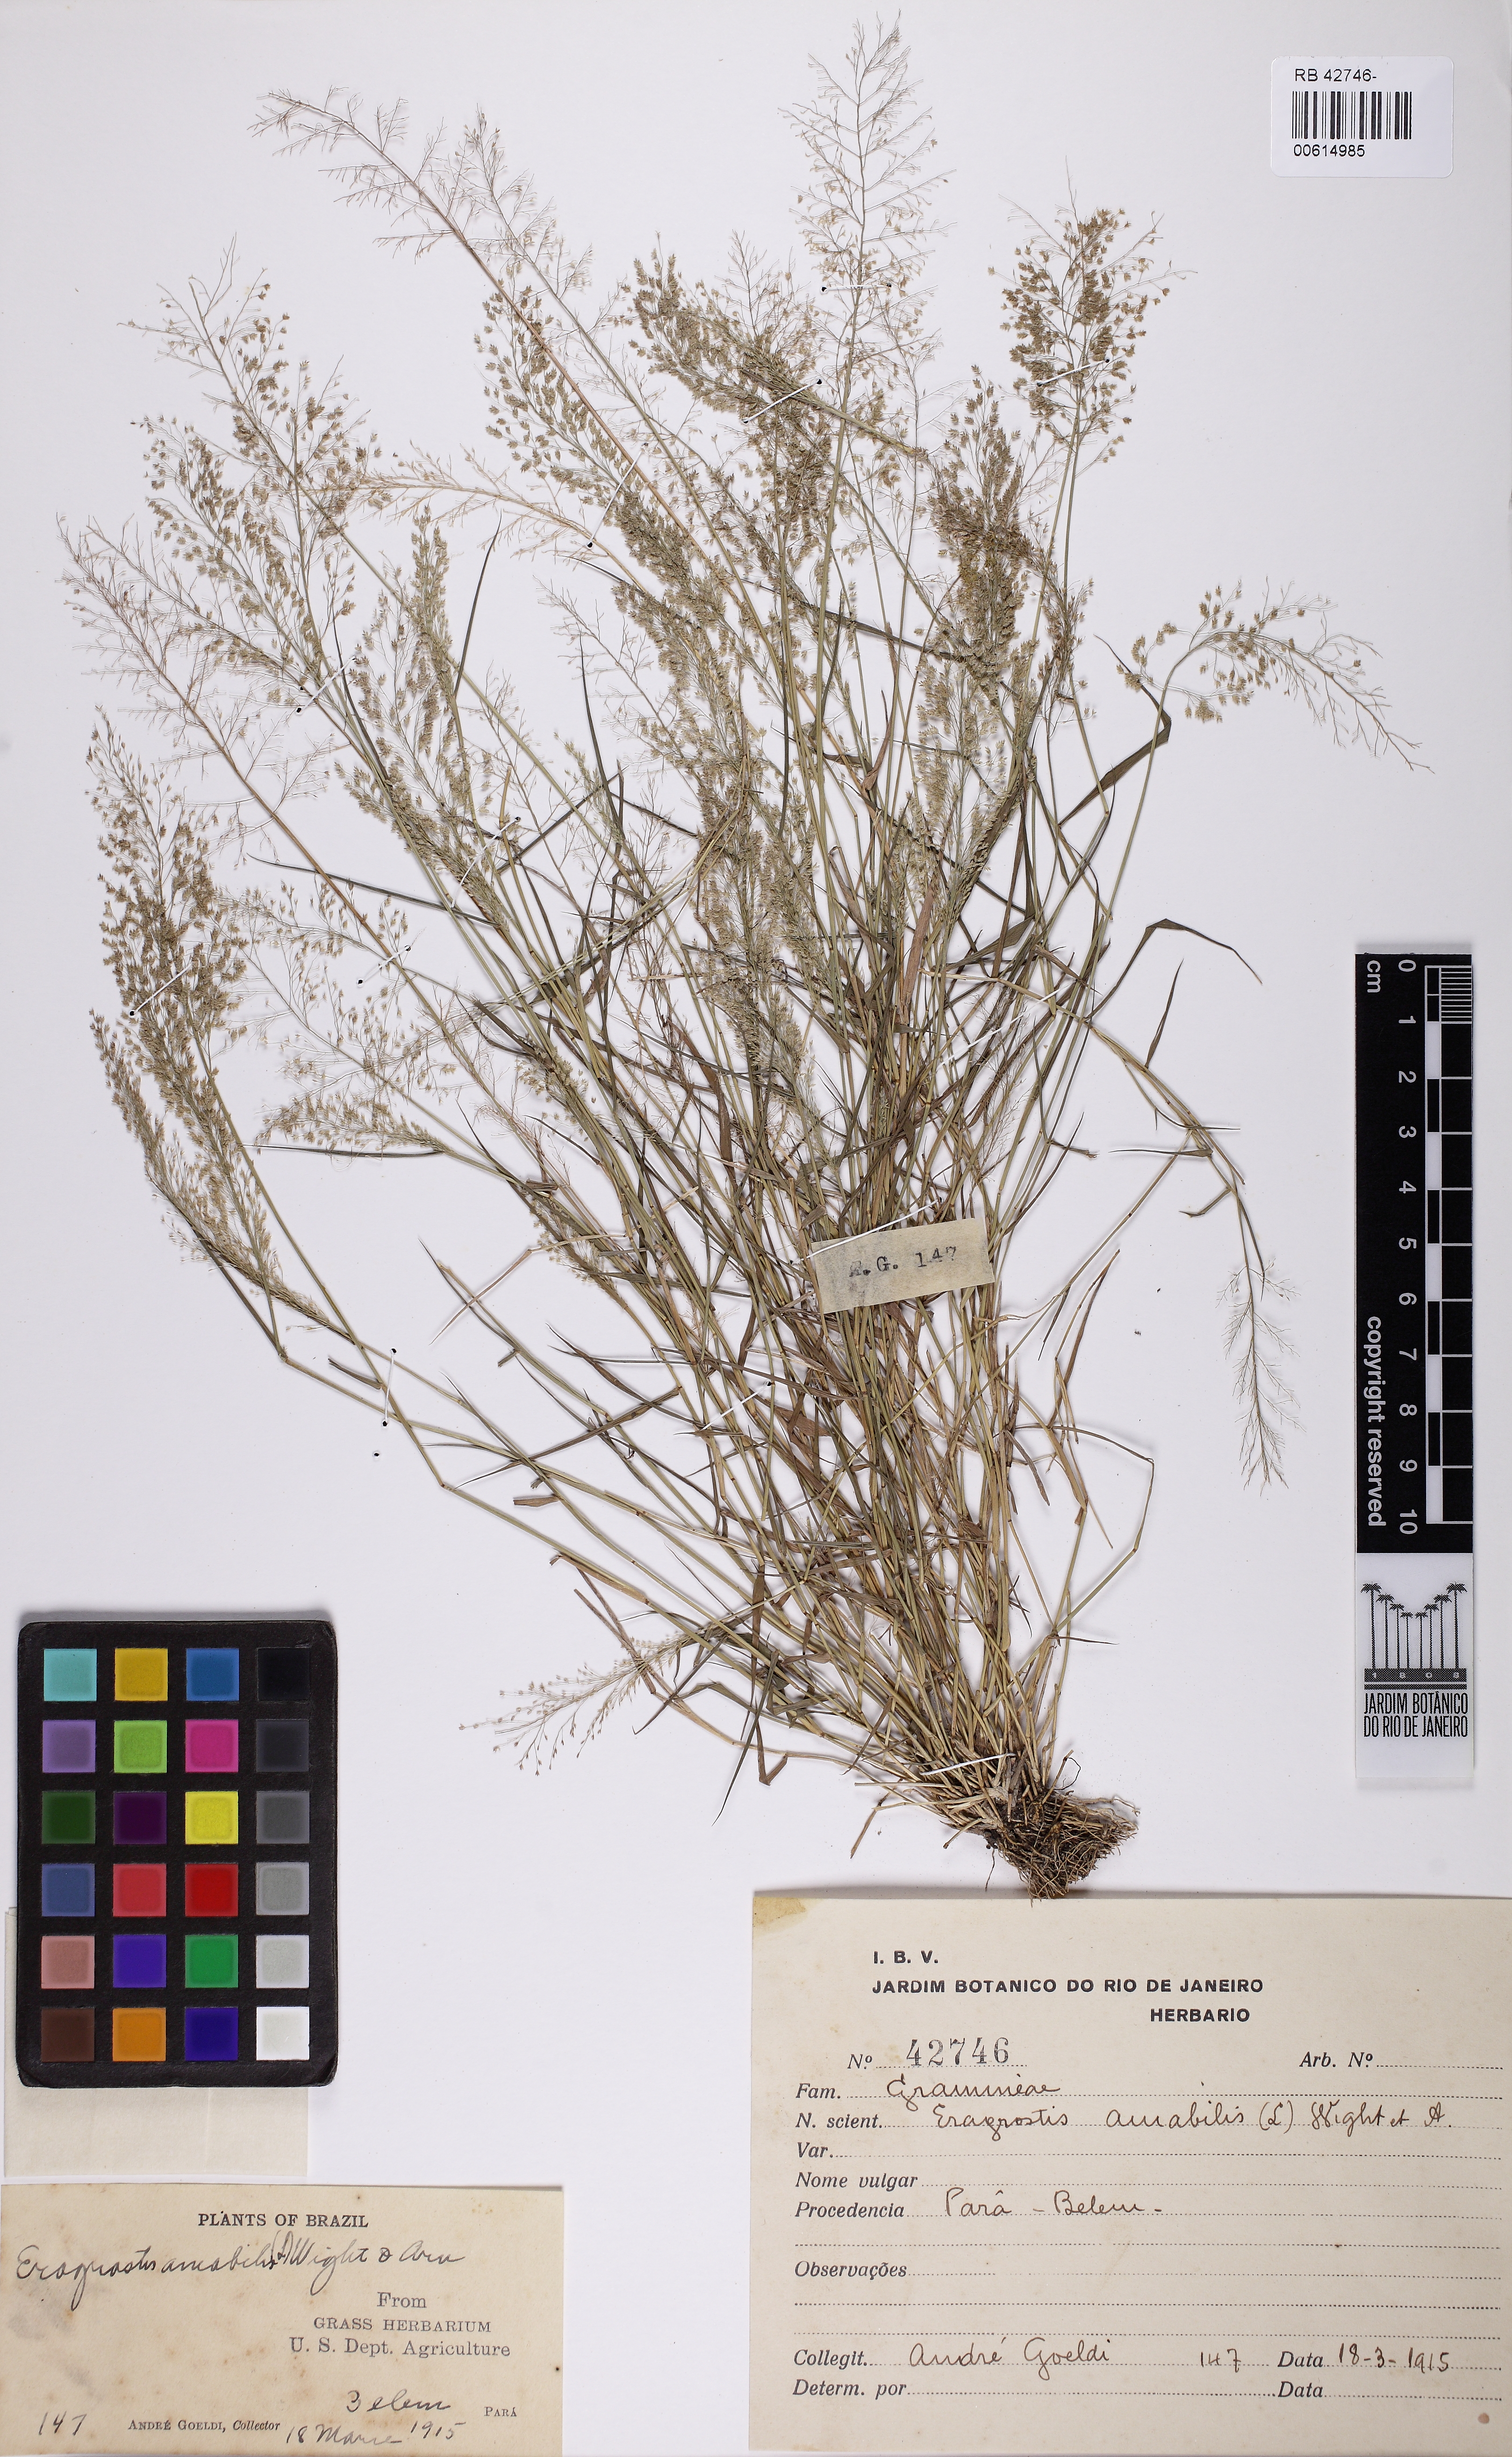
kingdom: Plantae
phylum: Tracheophyta
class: Liliopsida
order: Poales
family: Poaceae
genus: Eragrostis
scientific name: Eragrostis viscosa
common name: Sticky love grass
